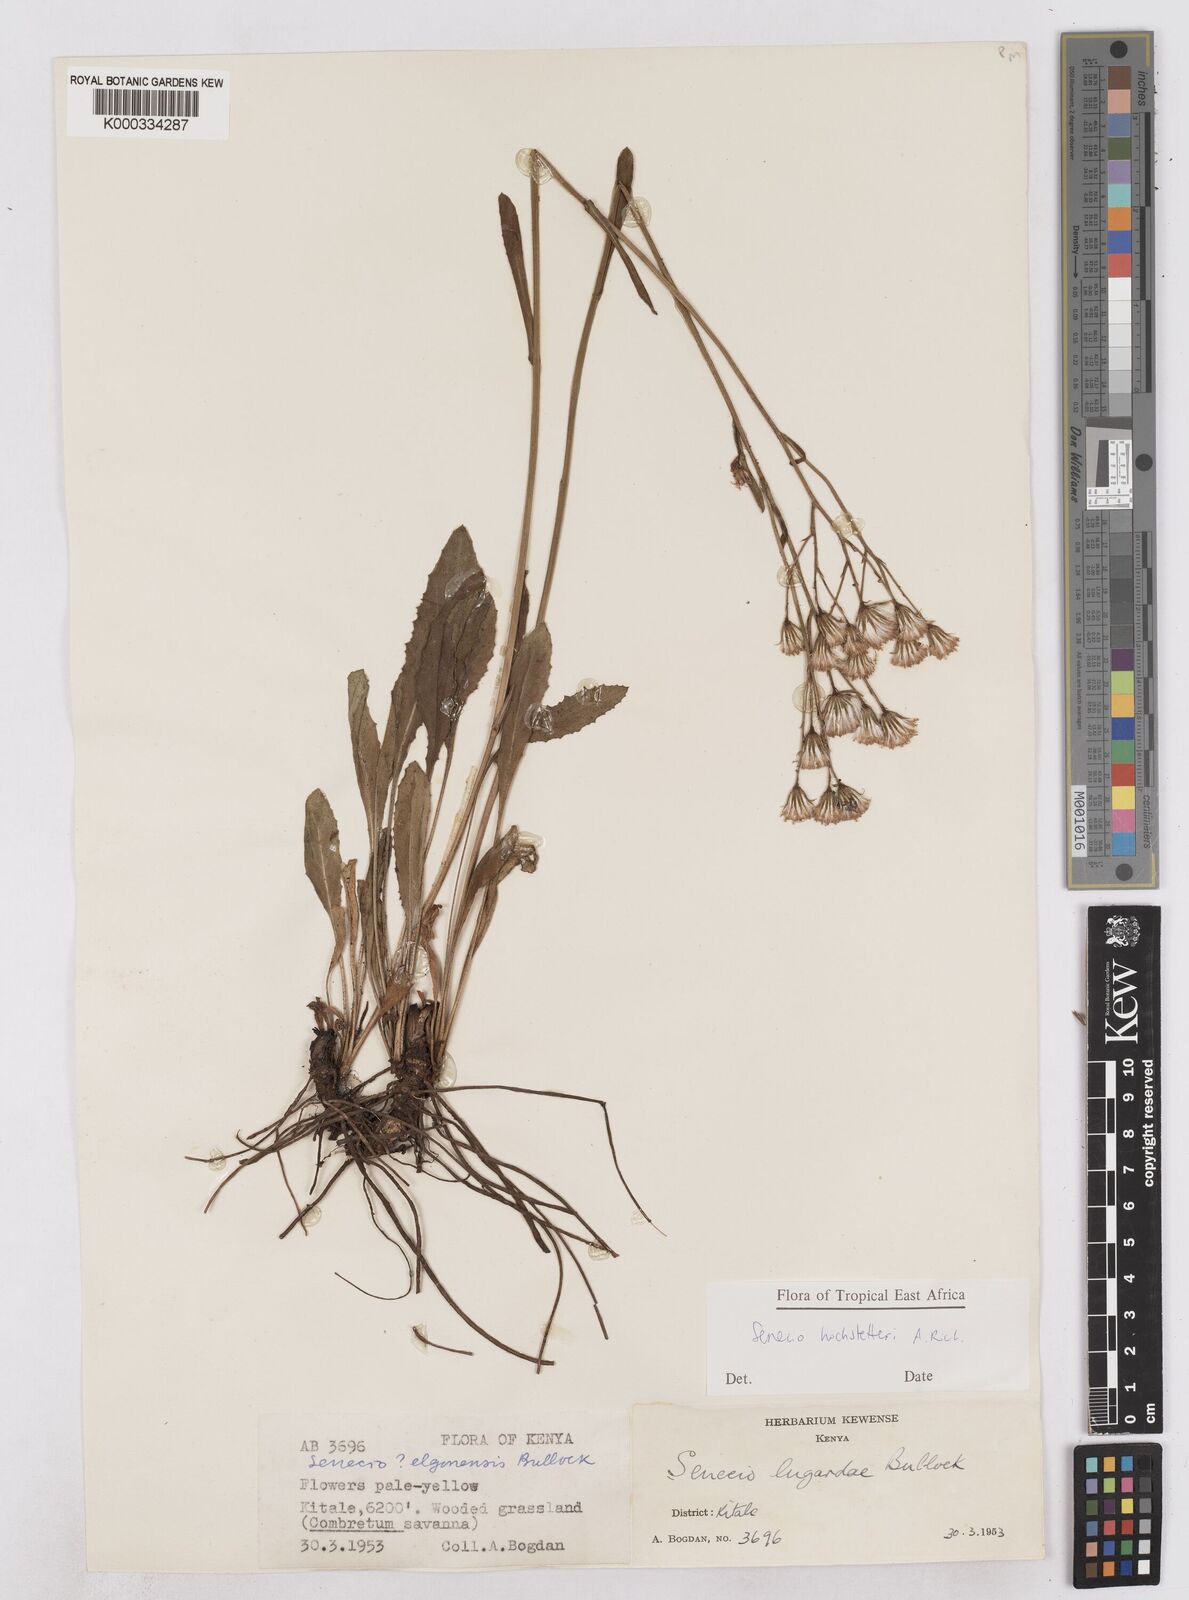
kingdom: Plantae
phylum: Tracheophyta
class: Magnoliopsida
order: Asterales
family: Asteraceae
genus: Senecio
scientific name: Senecio hochstetteri
